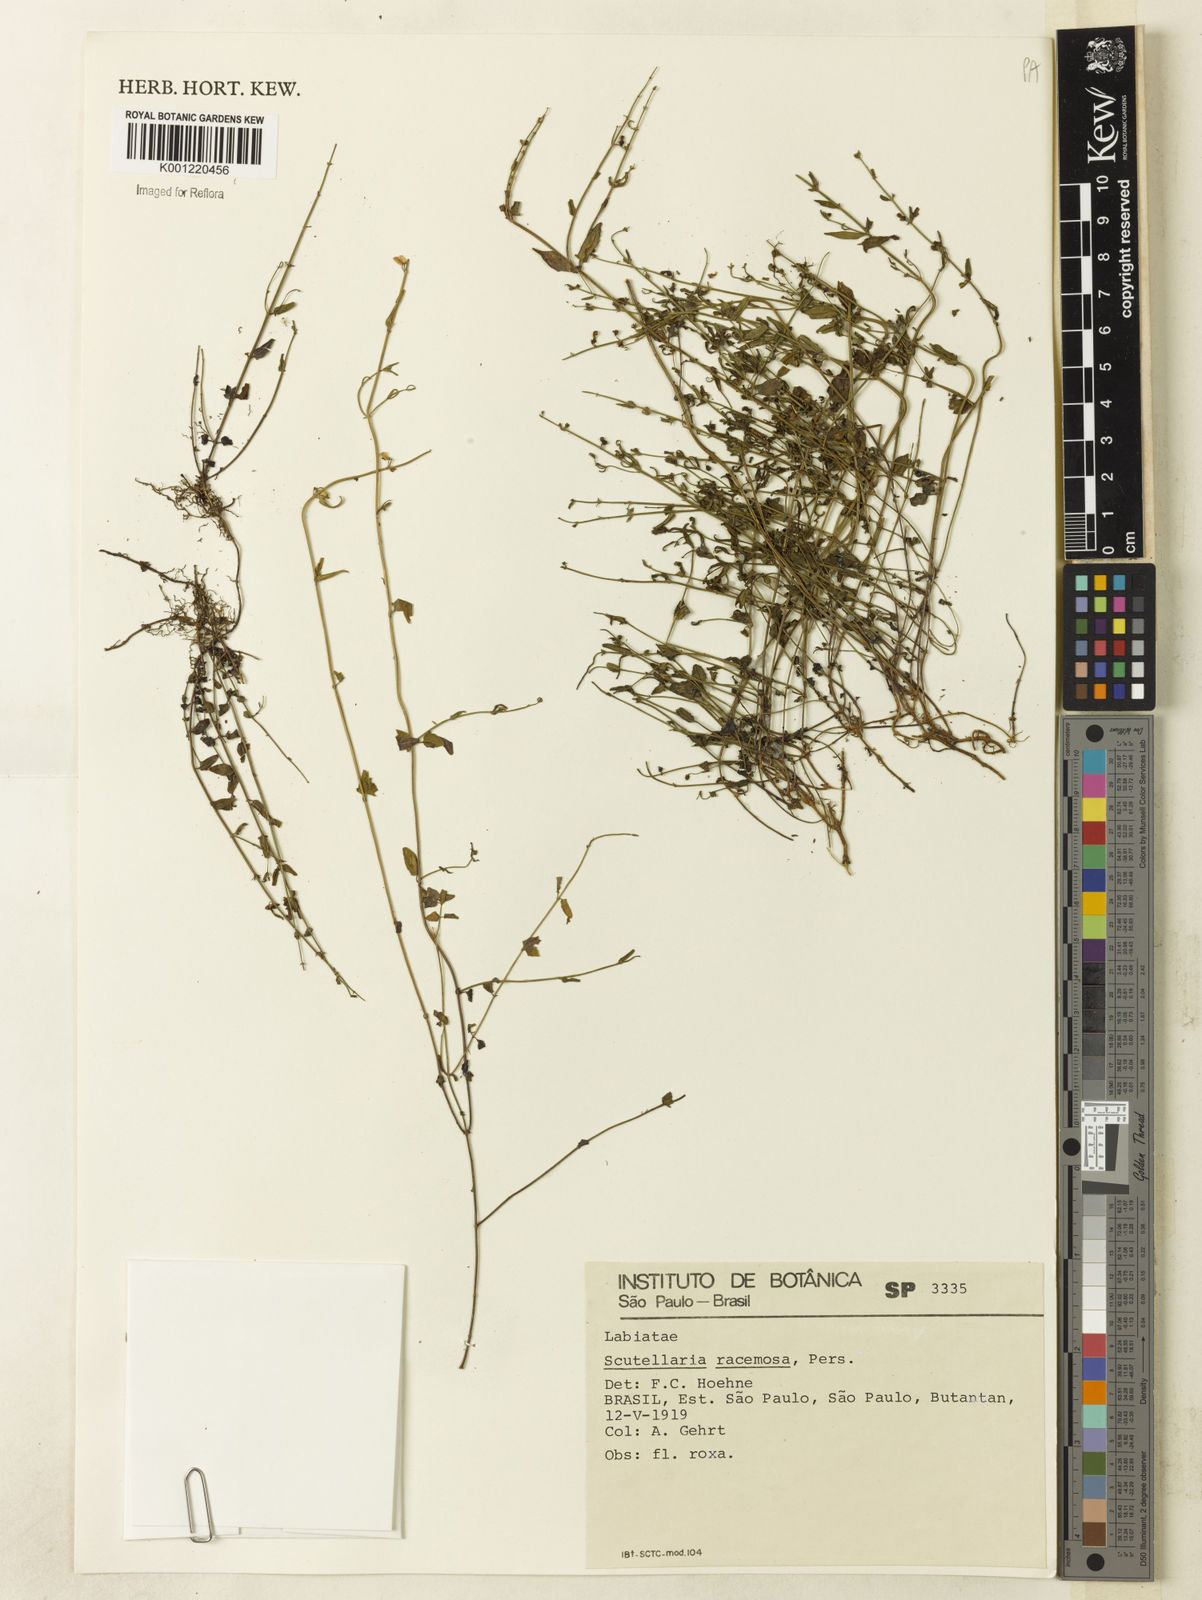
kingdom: Plantae
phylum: Tracheophyta
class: Magnoliopsida
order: Lamiales
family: Lamiaceae
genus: Scutellaria
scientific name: Scutellaria racemosa
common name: South american skullcap
